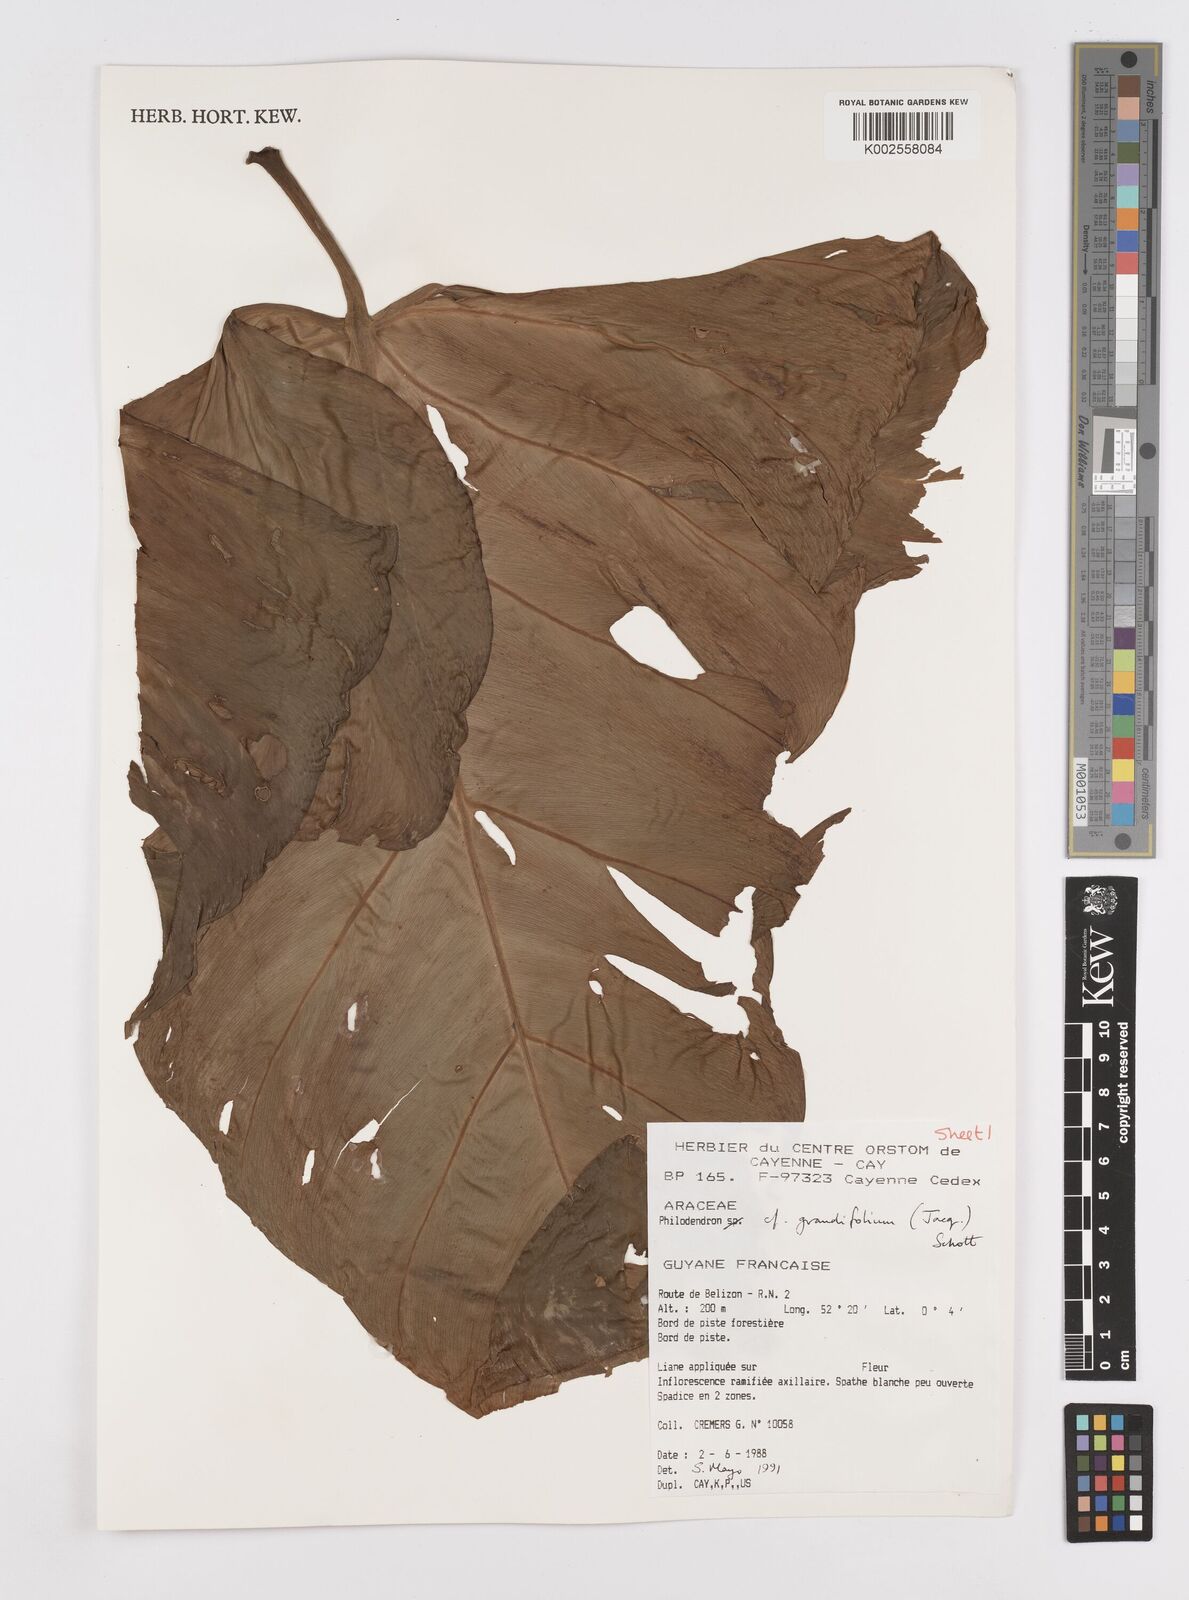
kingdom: Plantae
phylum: Tracheophyta
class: Liliopsida
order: Alismatales
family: Araceae
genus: Philodendron
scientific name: Philodendron grandifolium
